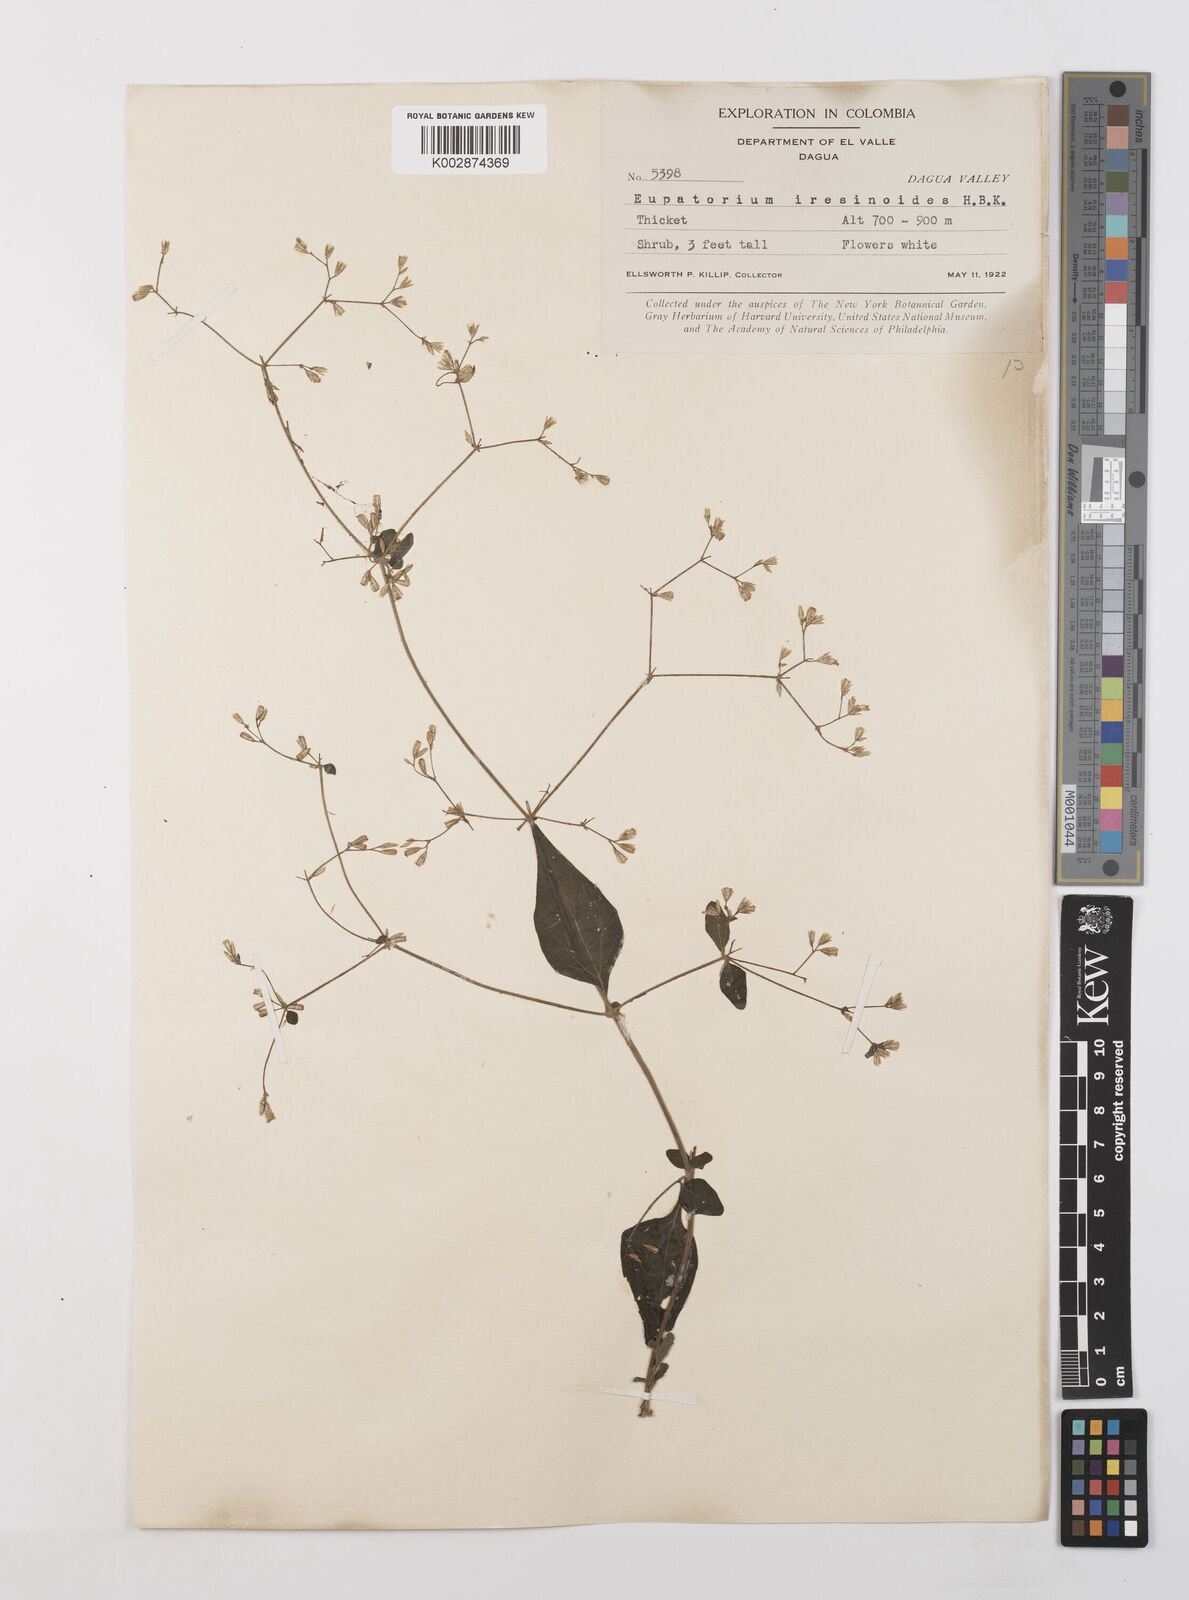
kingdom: Plantae
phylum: Tracheophyta
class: Magnoliopsida
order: Asterales
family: Asteraceae
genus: Condylidium
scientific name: Condylidium iresinoides
